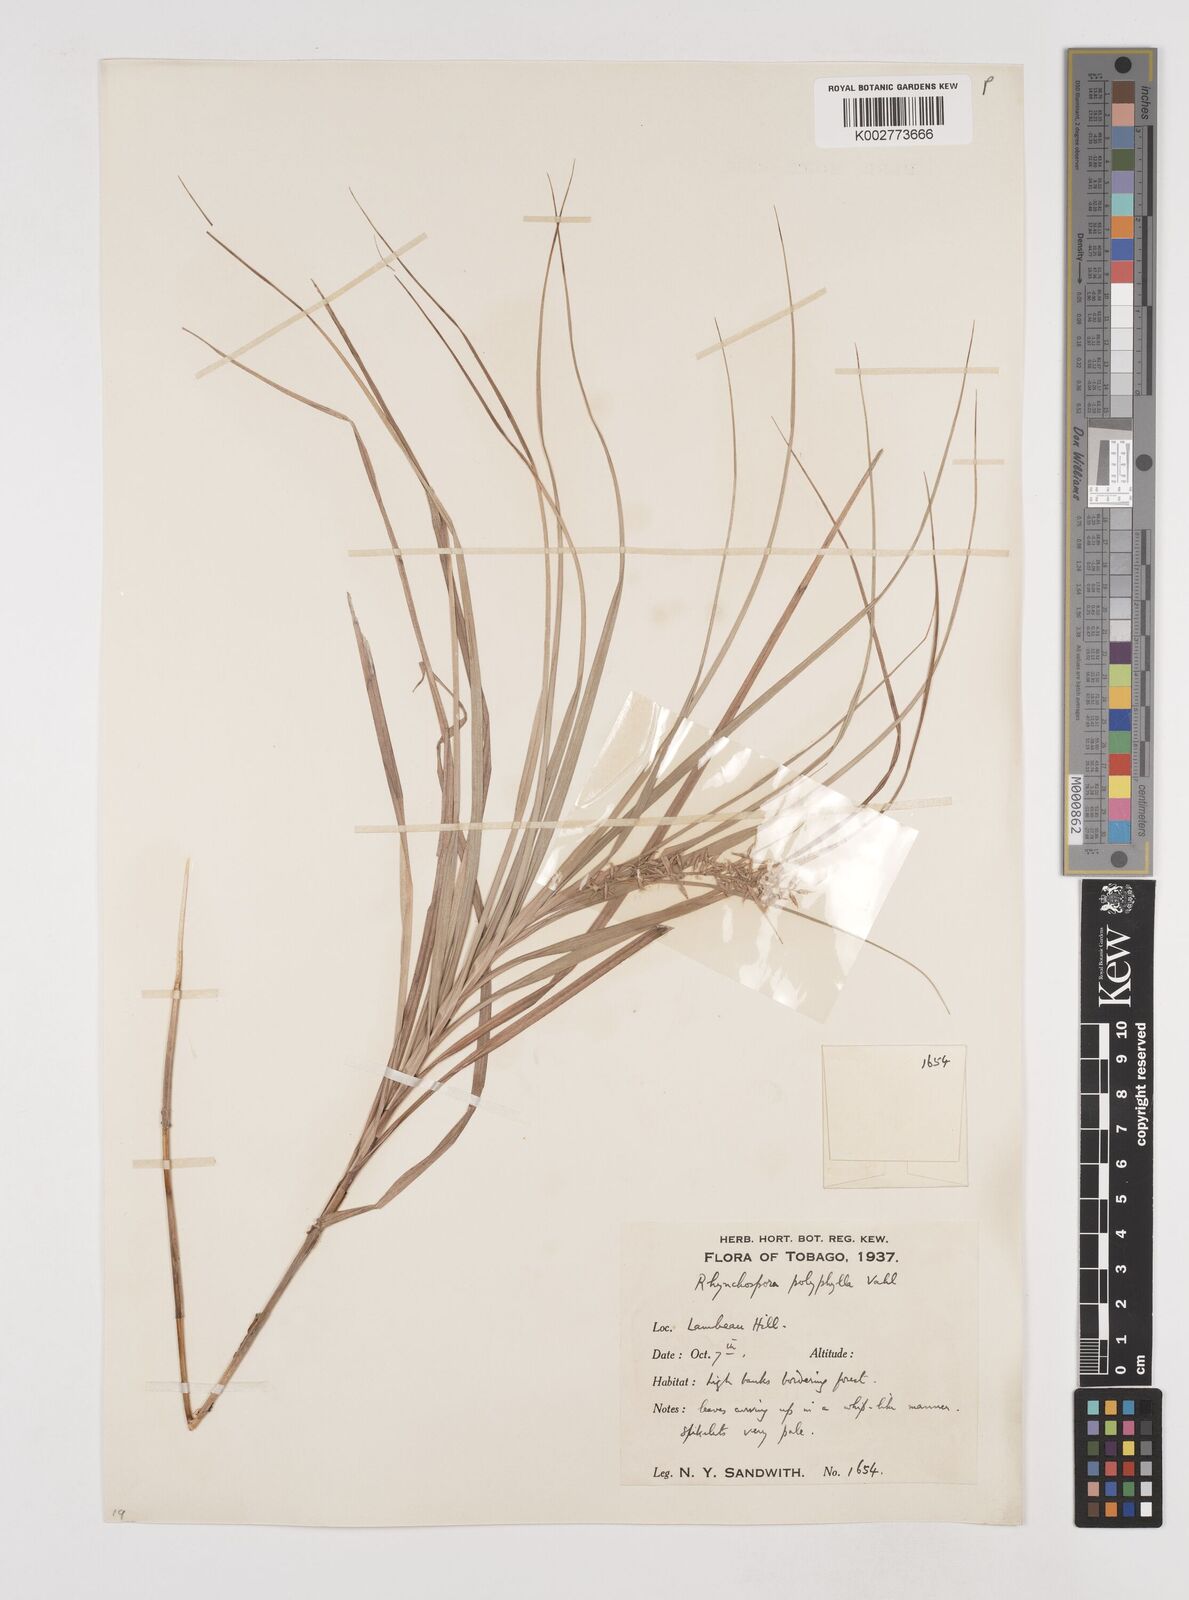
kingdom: Plantae
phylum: Tracheophyta
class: Liliopsida
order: Poales
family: Cyperaceae
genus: Rhynchospora
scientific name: Rhynchospora polyphylla
